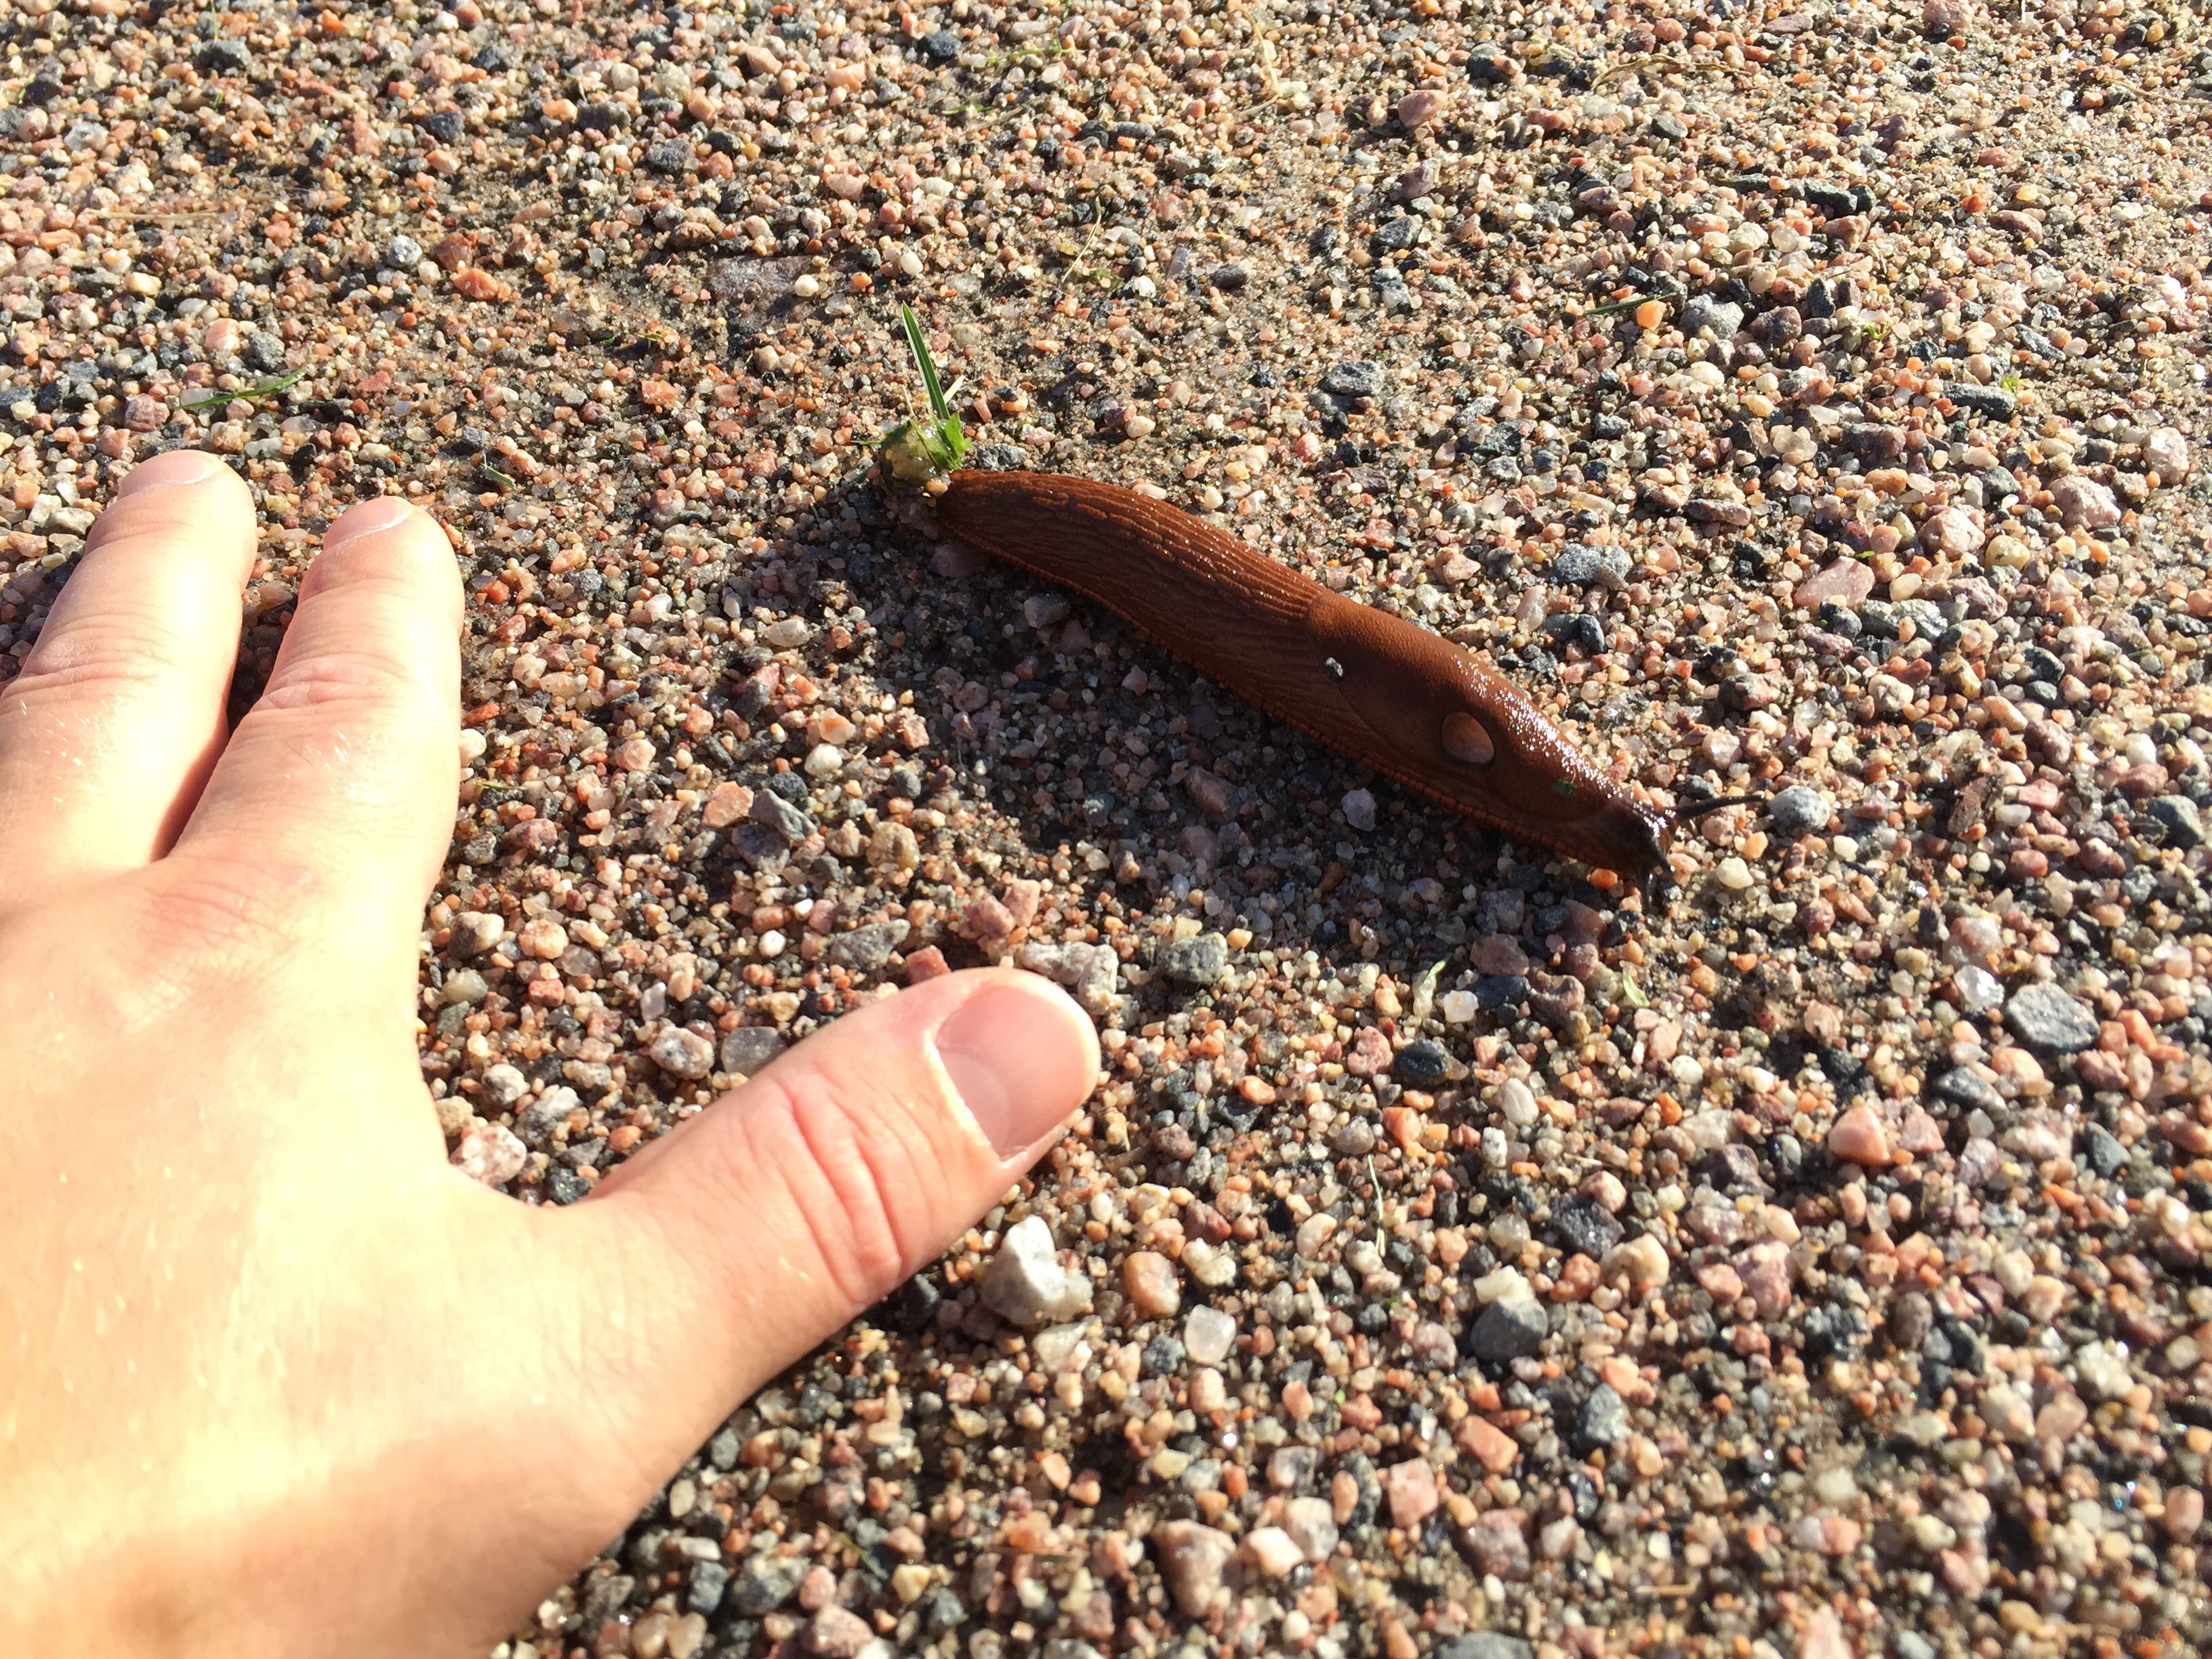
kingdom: Animalia
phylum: Mollusca
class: Gastropoda
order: Stylommatophora
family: Arionidae
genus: Arion
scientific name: Arion vulgaris
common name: Lusitanian slug
